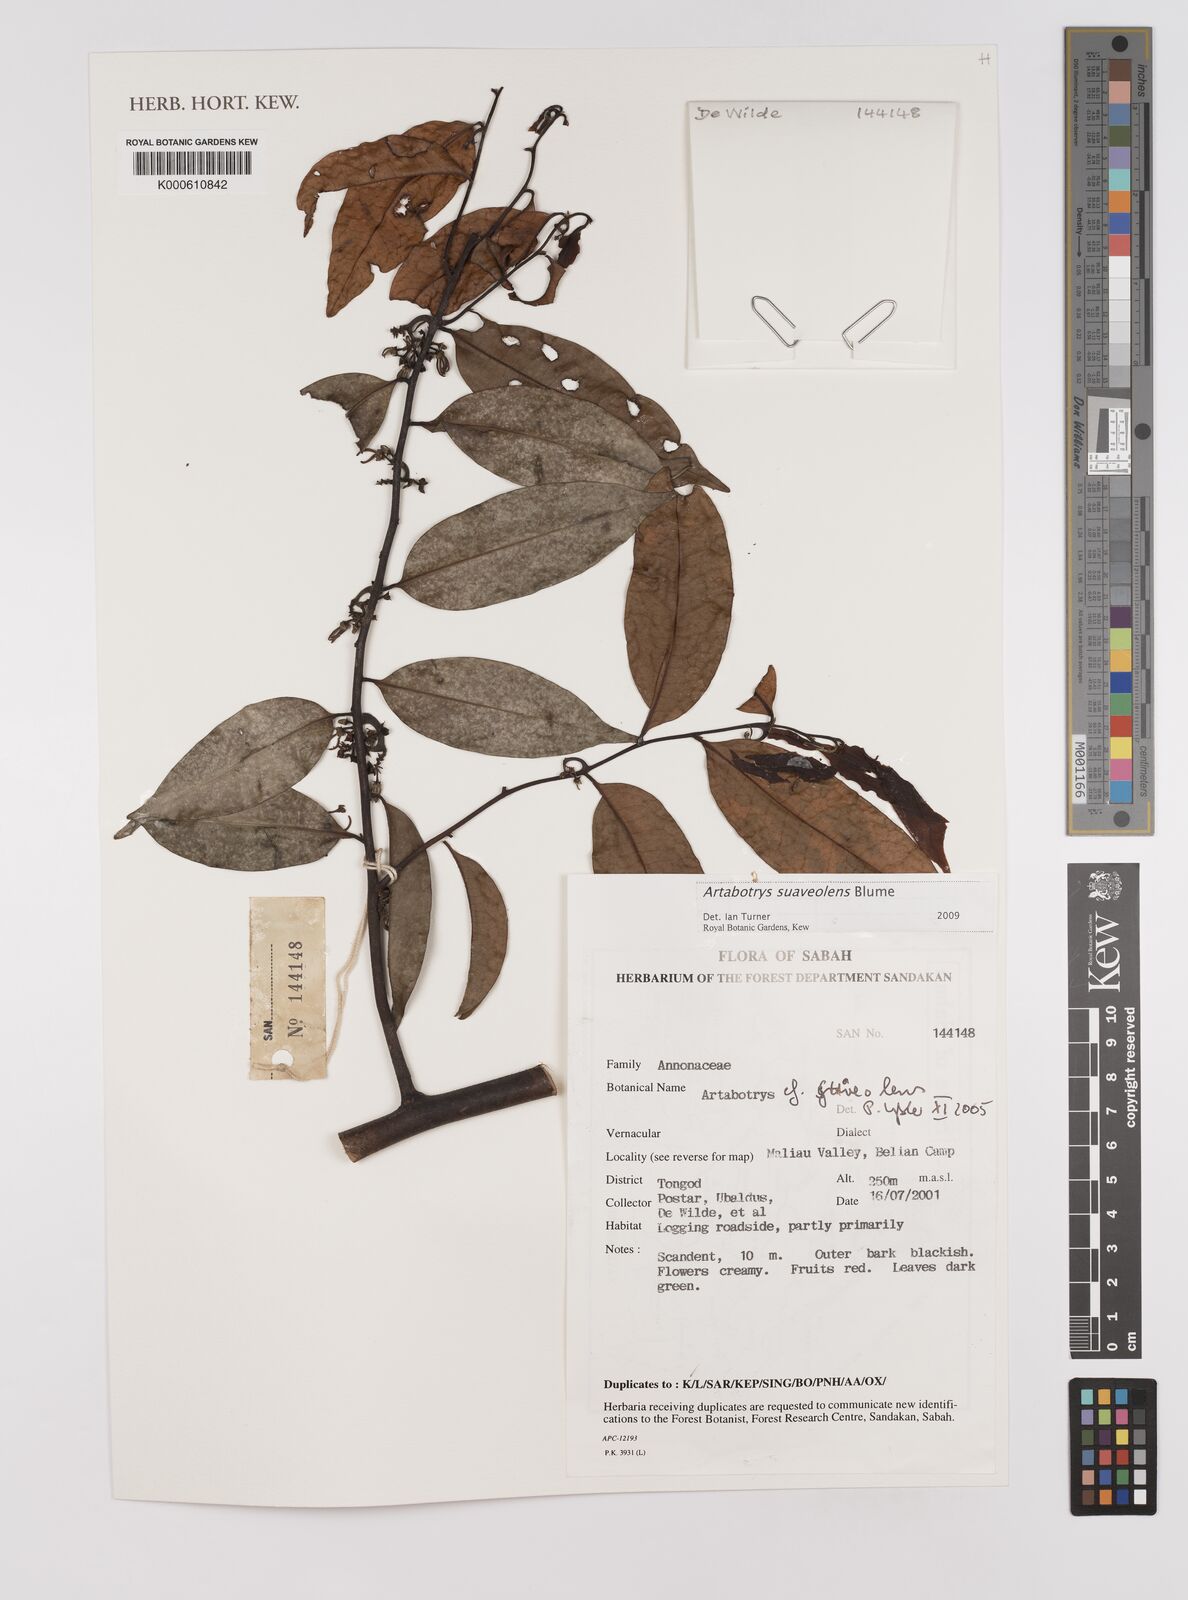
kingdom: Plantae
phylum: Tracheophyta
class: Magnoliopsida
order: Magnoliales
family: Annonaceae
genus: Artabotrys
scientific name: Artabotrys suaveolens
